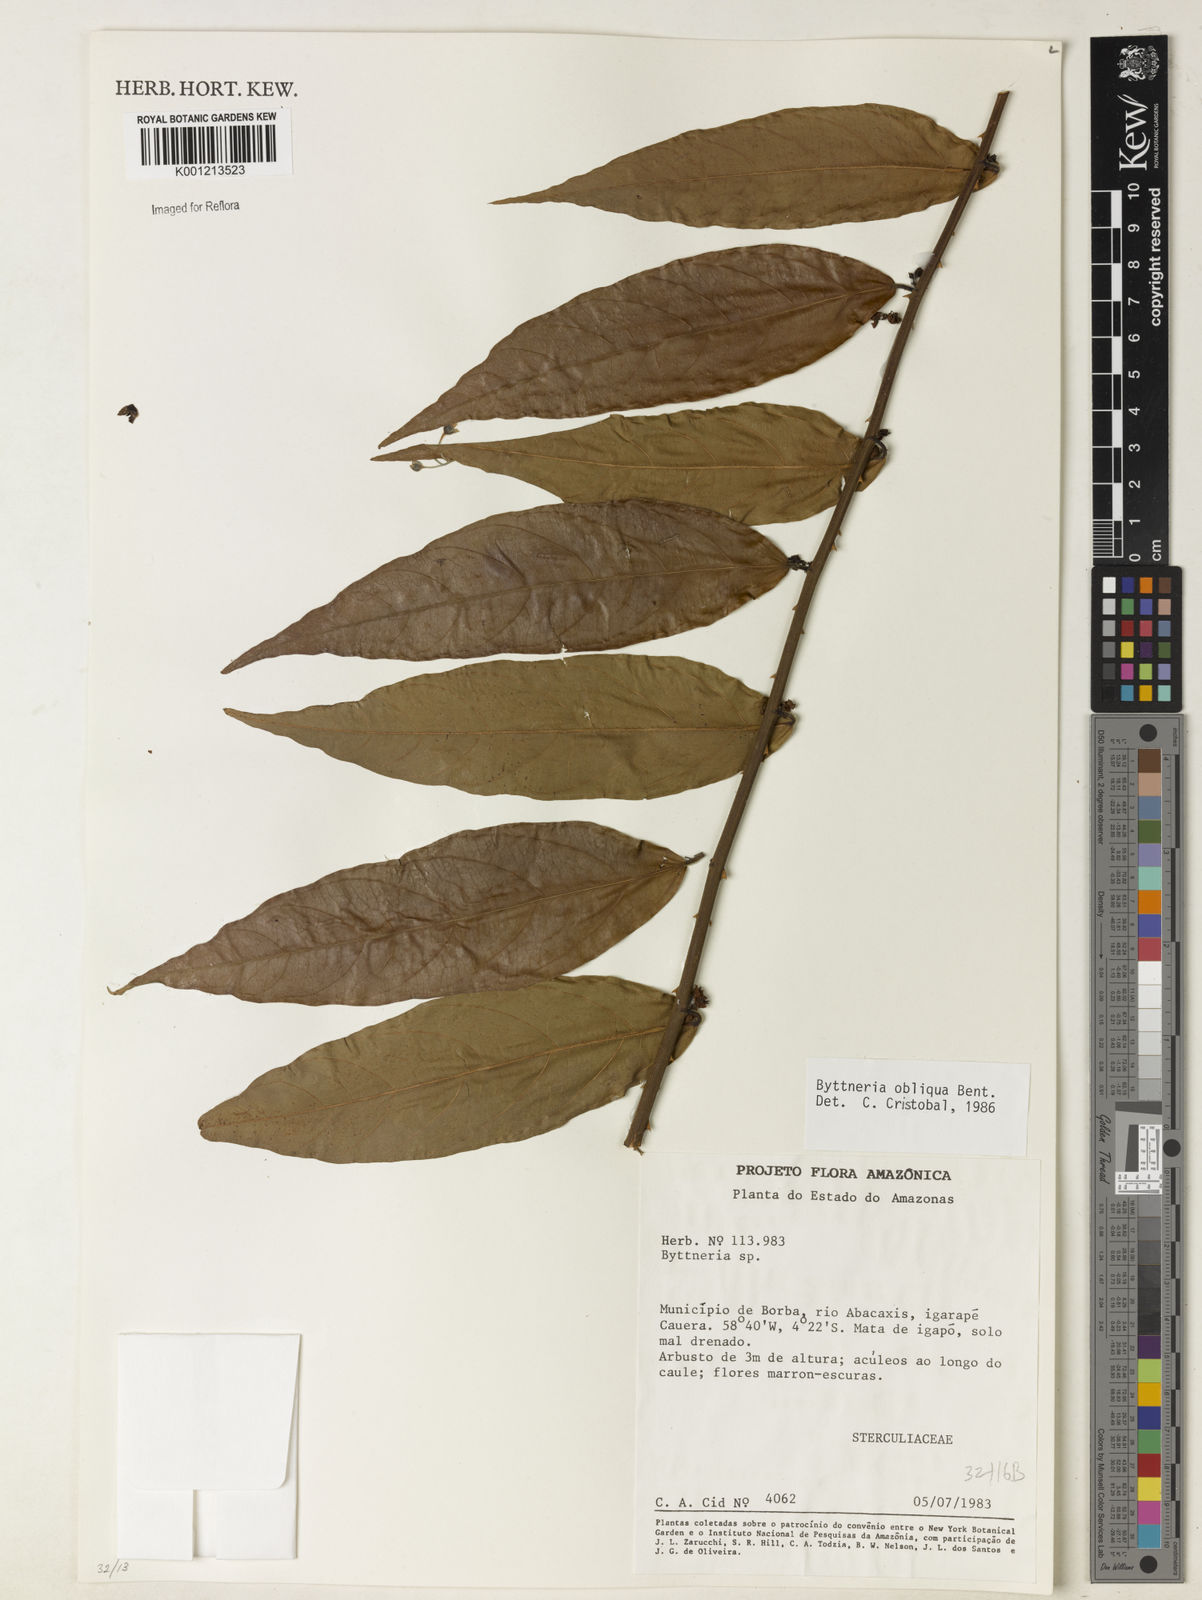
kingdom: Plantae
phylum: Tracheophyta
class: Magnoliopsida
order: Malvales
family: Malvaceae
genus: Byttneria
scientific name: Byttneria obliqua
